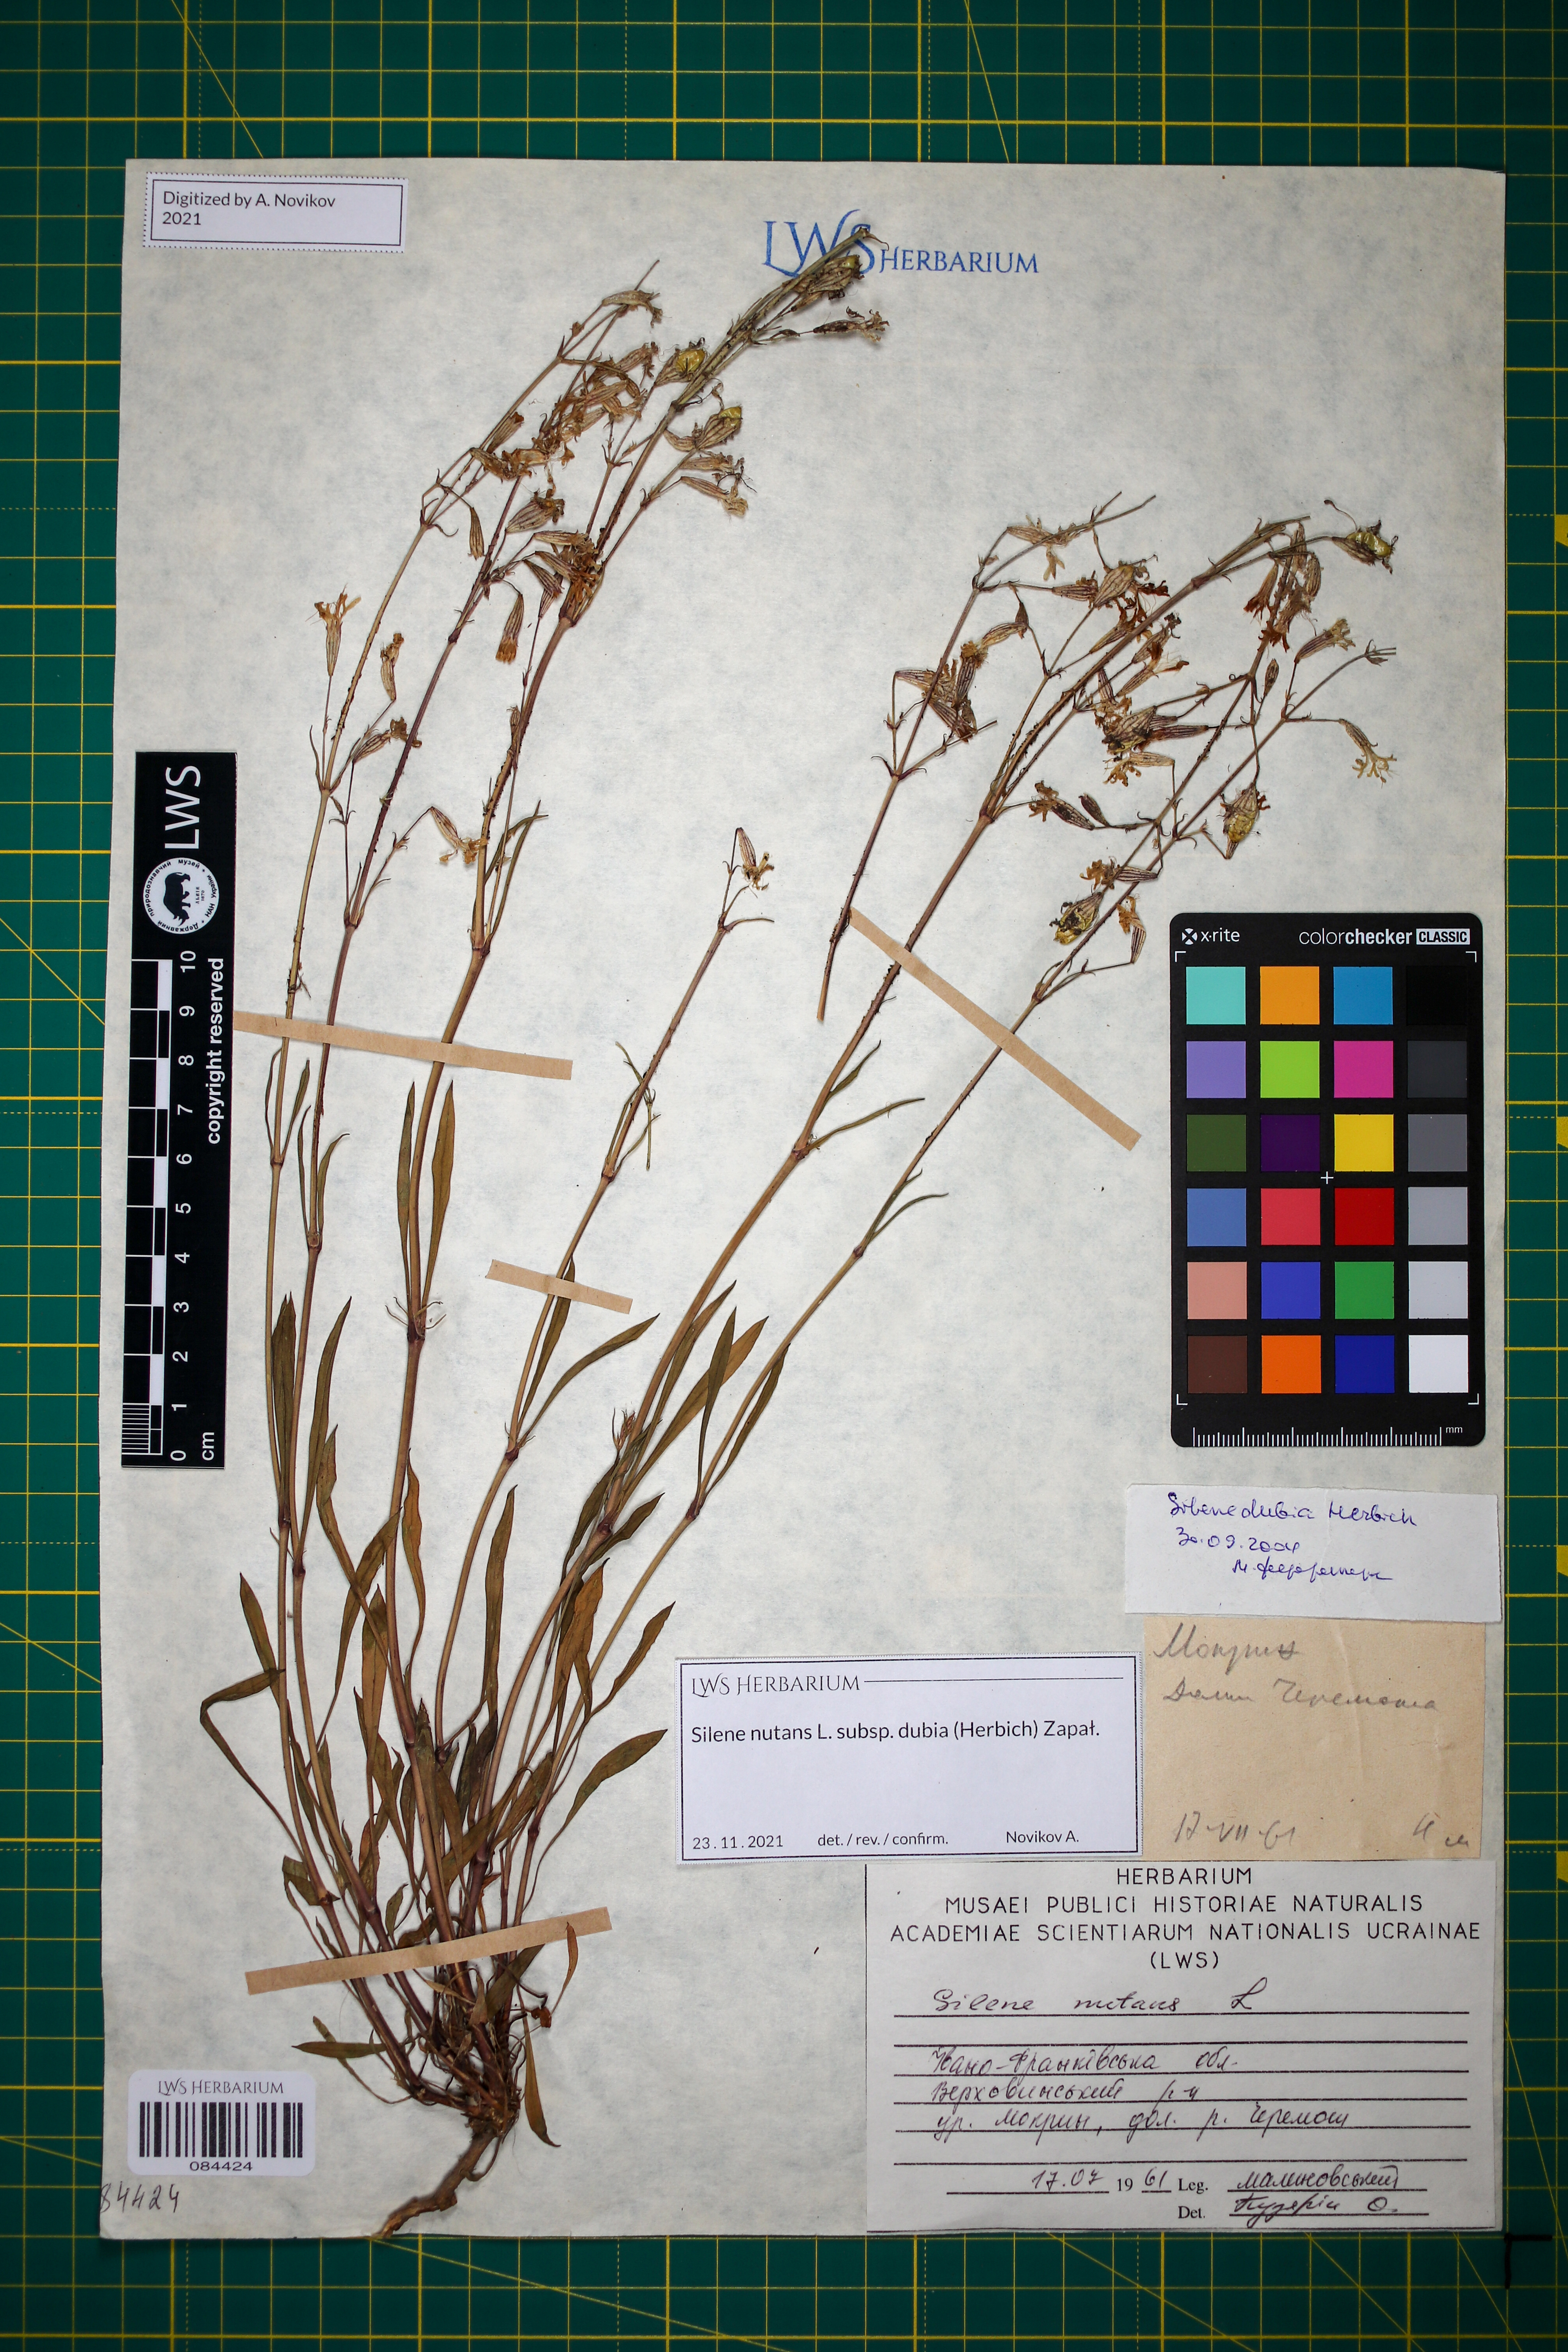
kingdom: Plantae
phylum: Tracheophyta
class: Magnoliopsida
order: Caryophyllales
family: Caryophyllaceae
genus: Silene
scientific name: Silene nutans
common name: Nottingham catchfly
